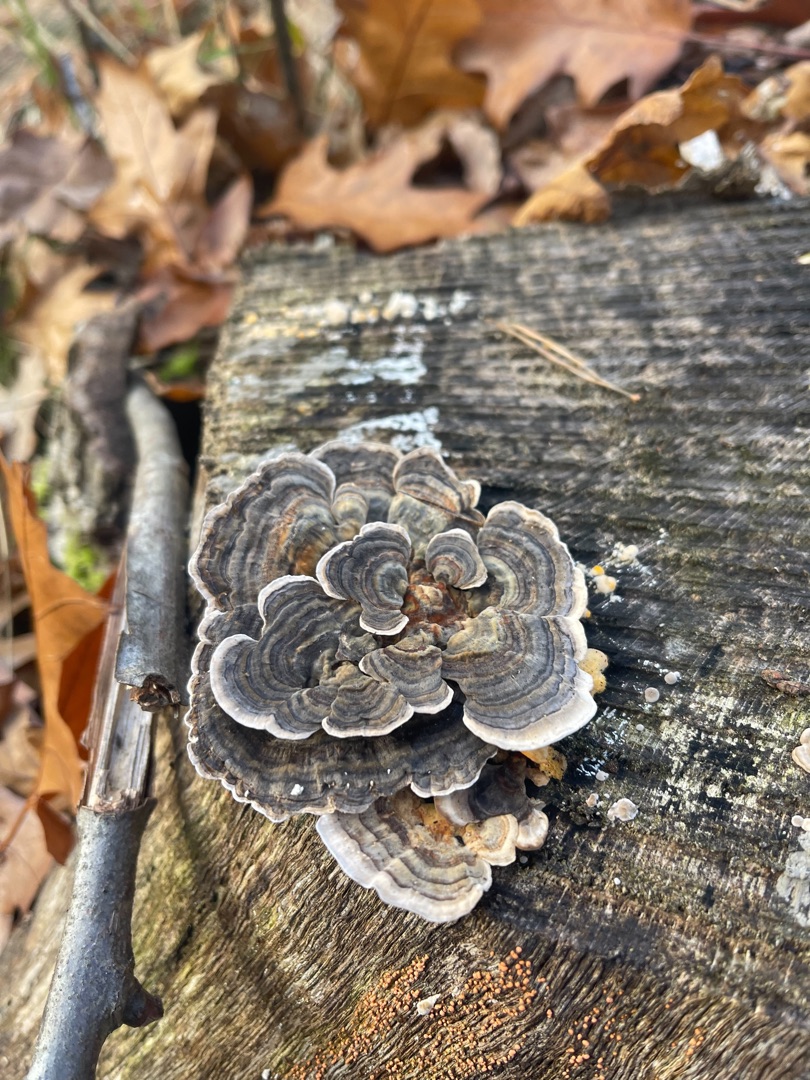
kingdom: Fungi
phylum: Basidiomycota
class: Agaricomycetes
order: Polyporales
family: Polyporaceae
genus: Trametes
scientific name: Trametes versicolor
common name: Broget læderporesvamp
